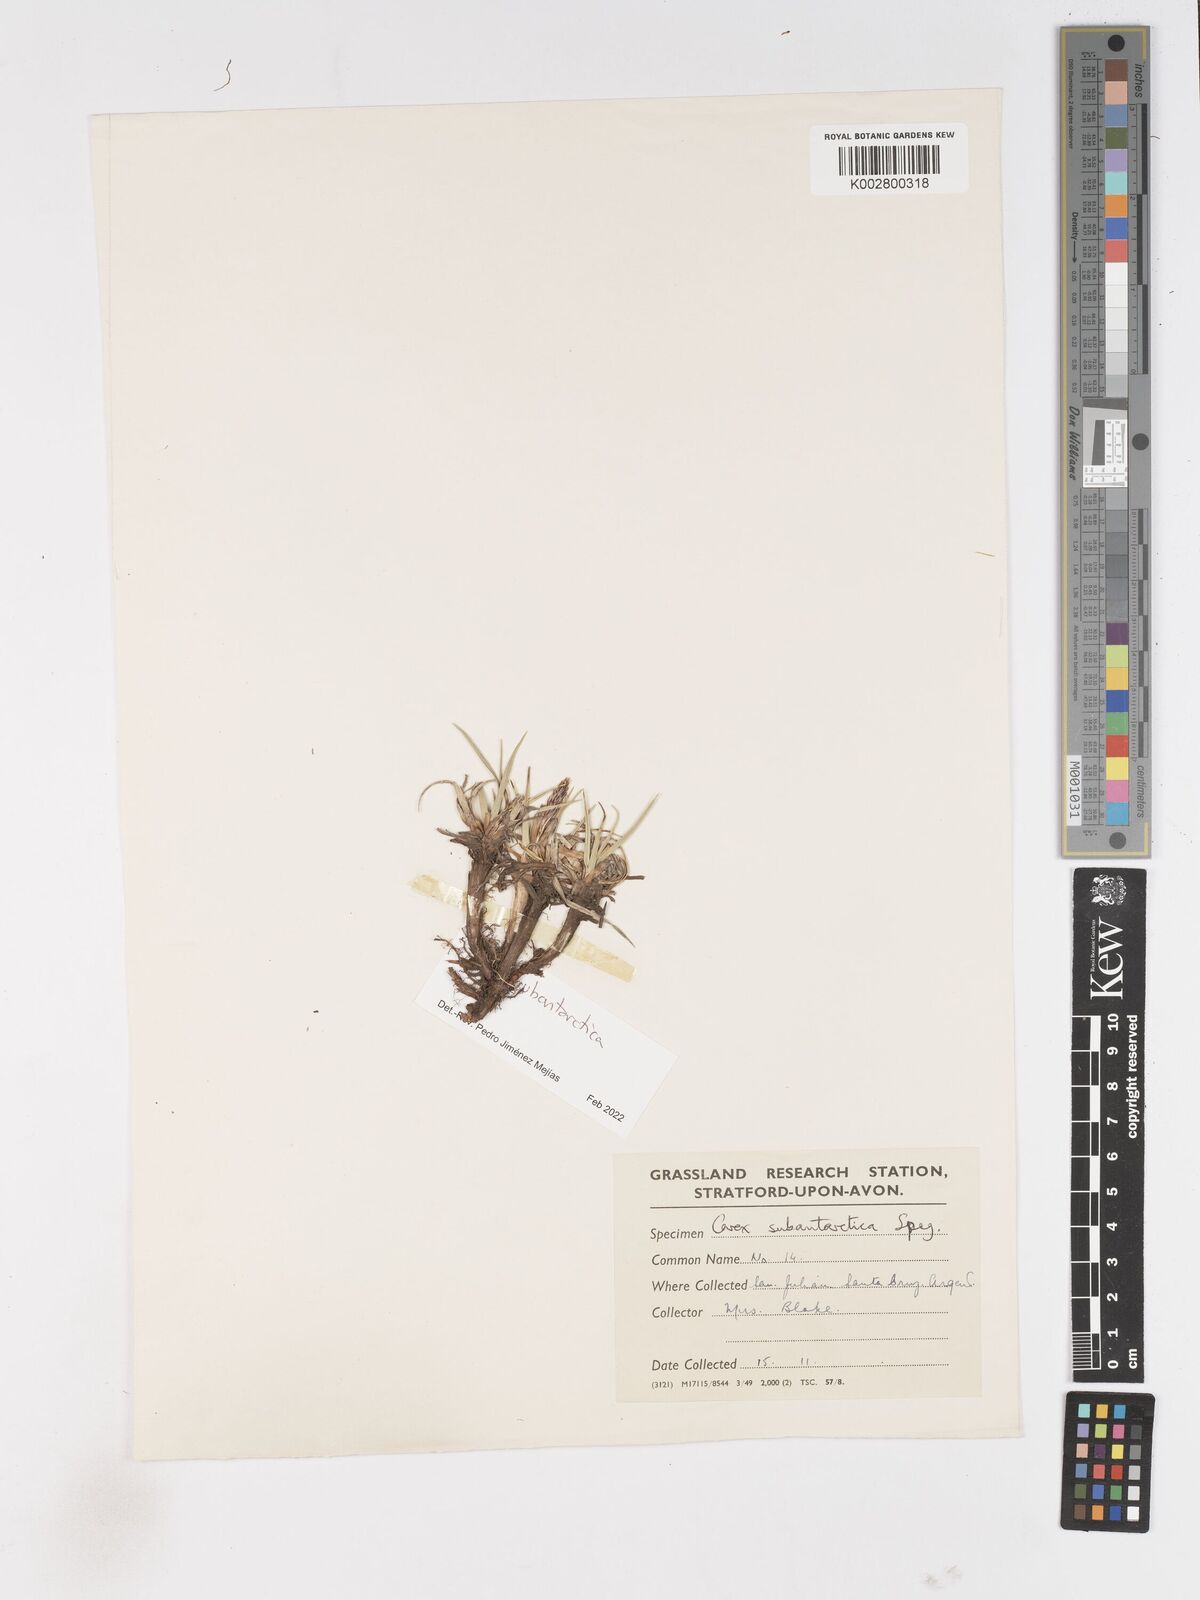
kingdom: Plantae
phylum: Tracheophyta
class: Liliopsida
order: Poales
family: Cyperaceae
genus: Carex
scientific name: Carex subantarctica
